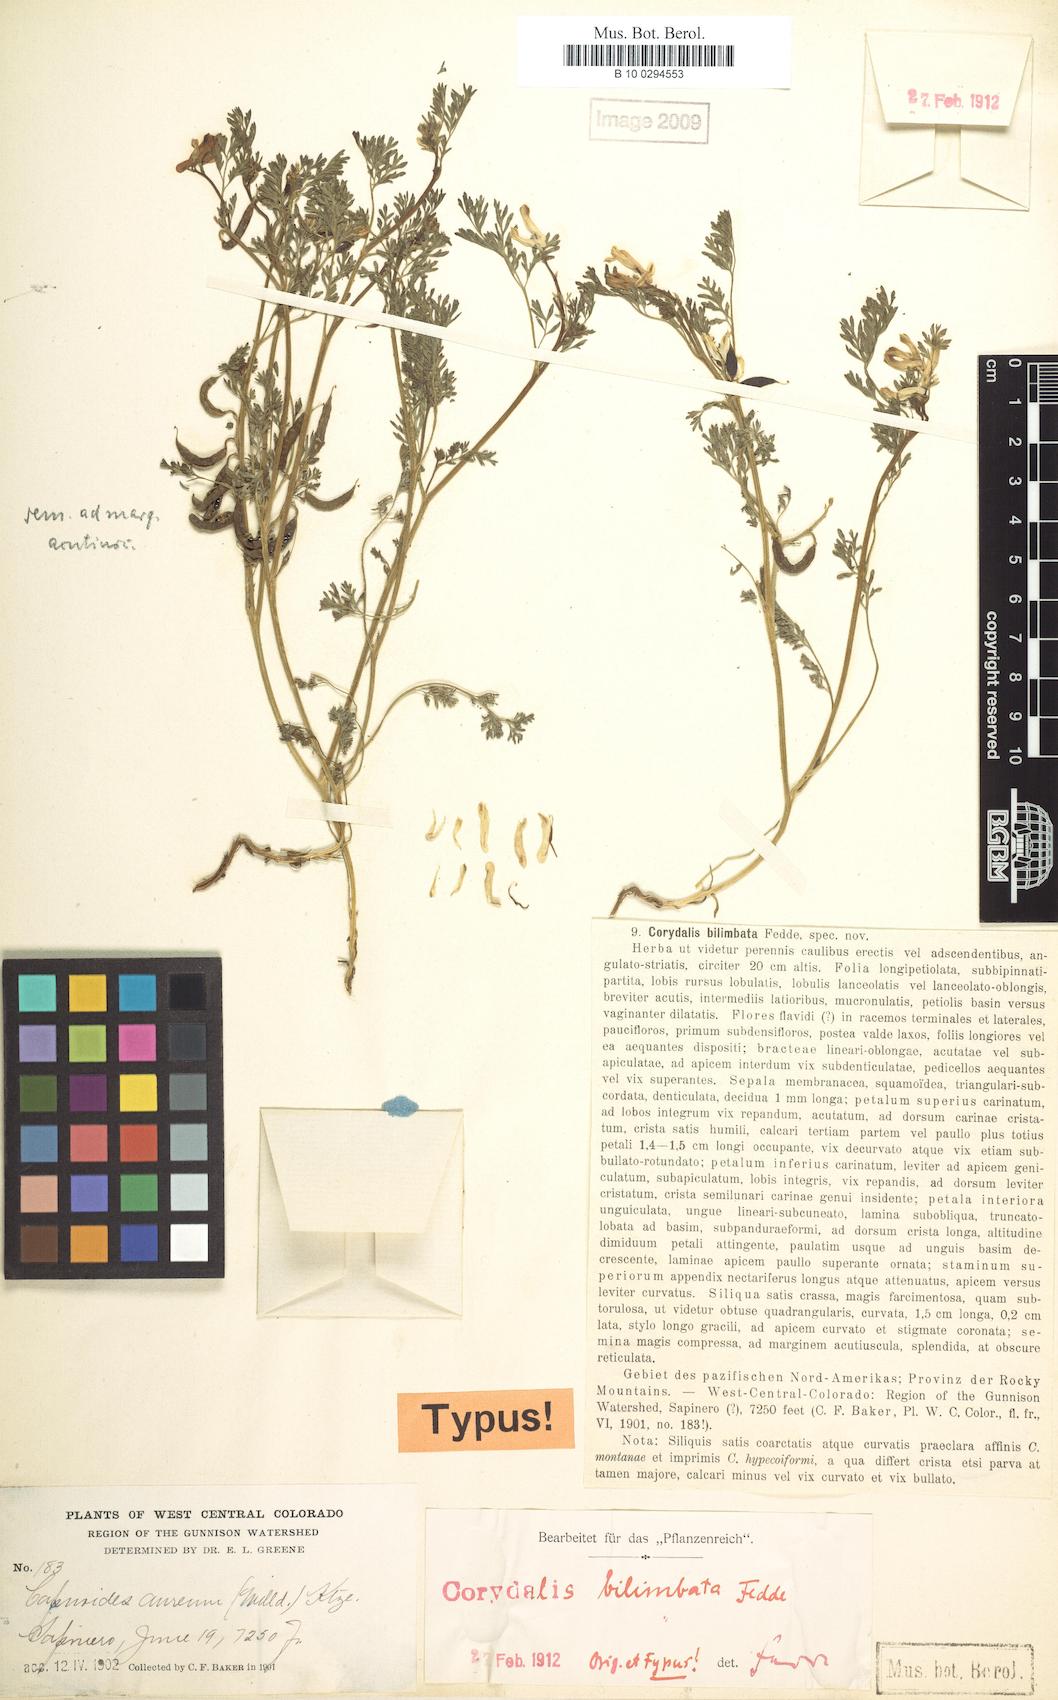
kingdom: Plantae
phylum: Tracheophyta
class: Magnoliopsida
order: Ranunculales
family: Papaveraceae
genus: Corydalis
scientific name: Corydalis bilimbata
